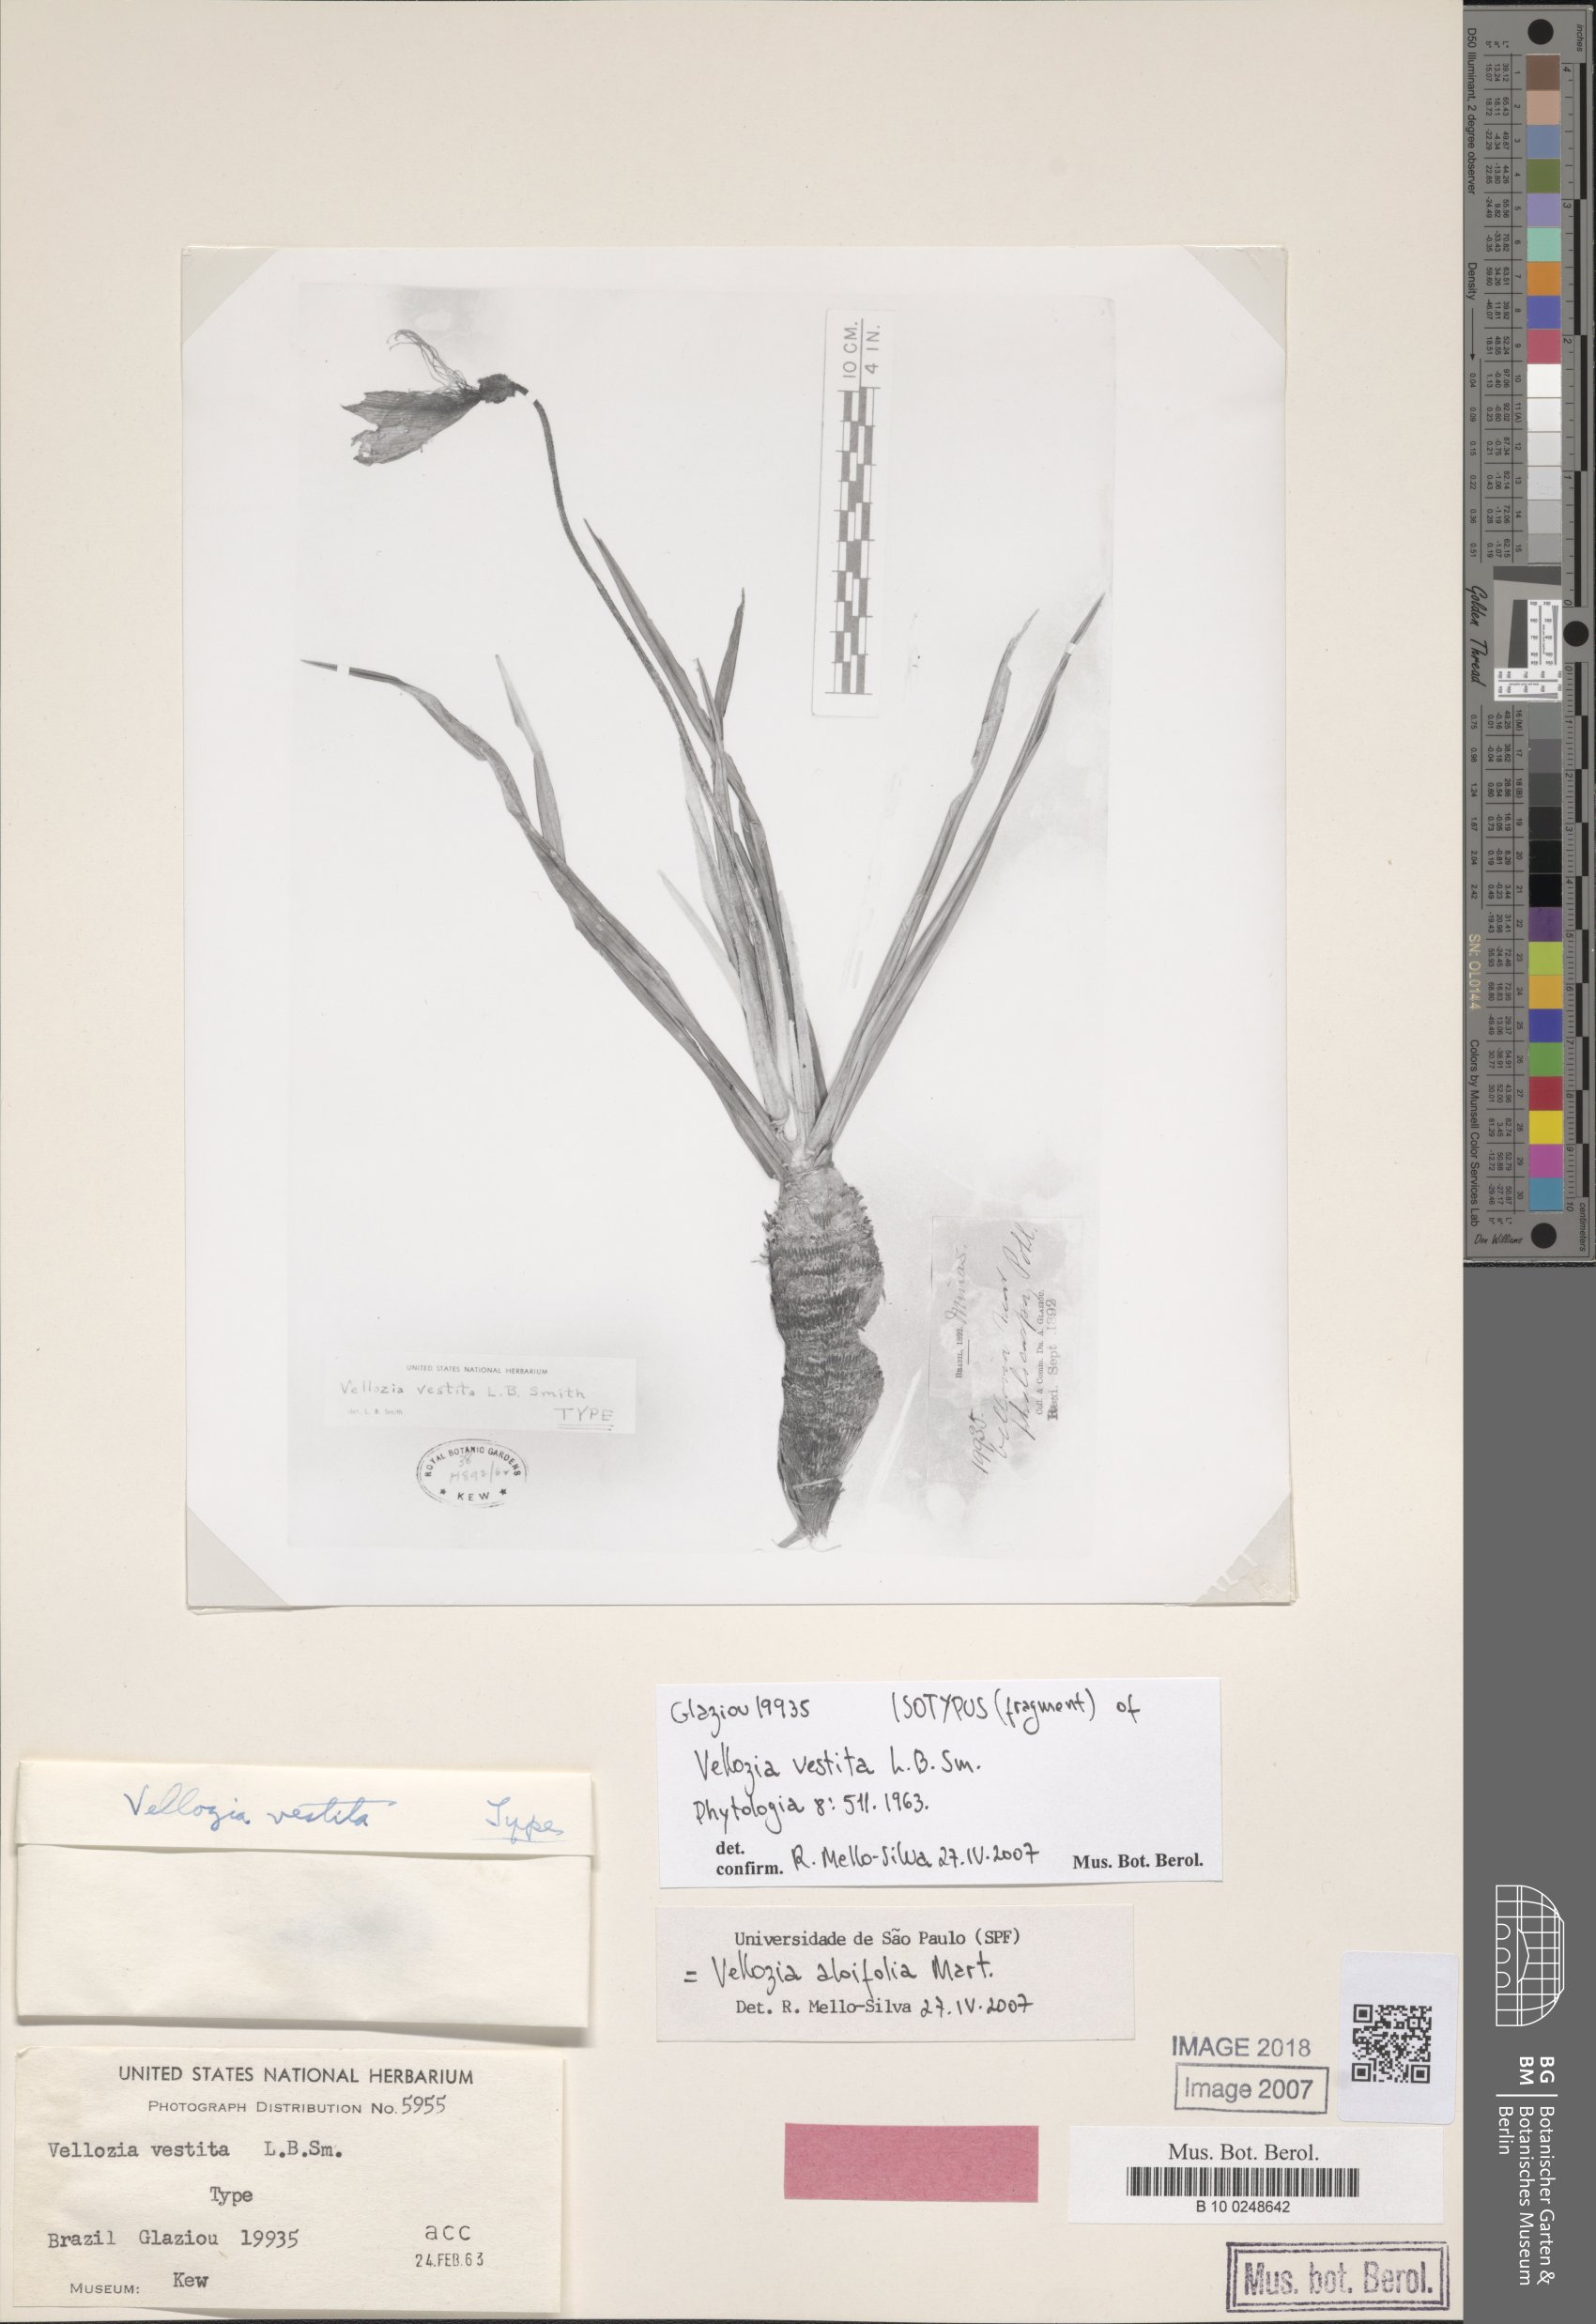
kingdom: Plantae
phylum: Tracheophyta
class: Liliopsida
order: Pandanales
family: Velloziaceae
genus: Vellozia
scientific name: Vellozia aloifolia
